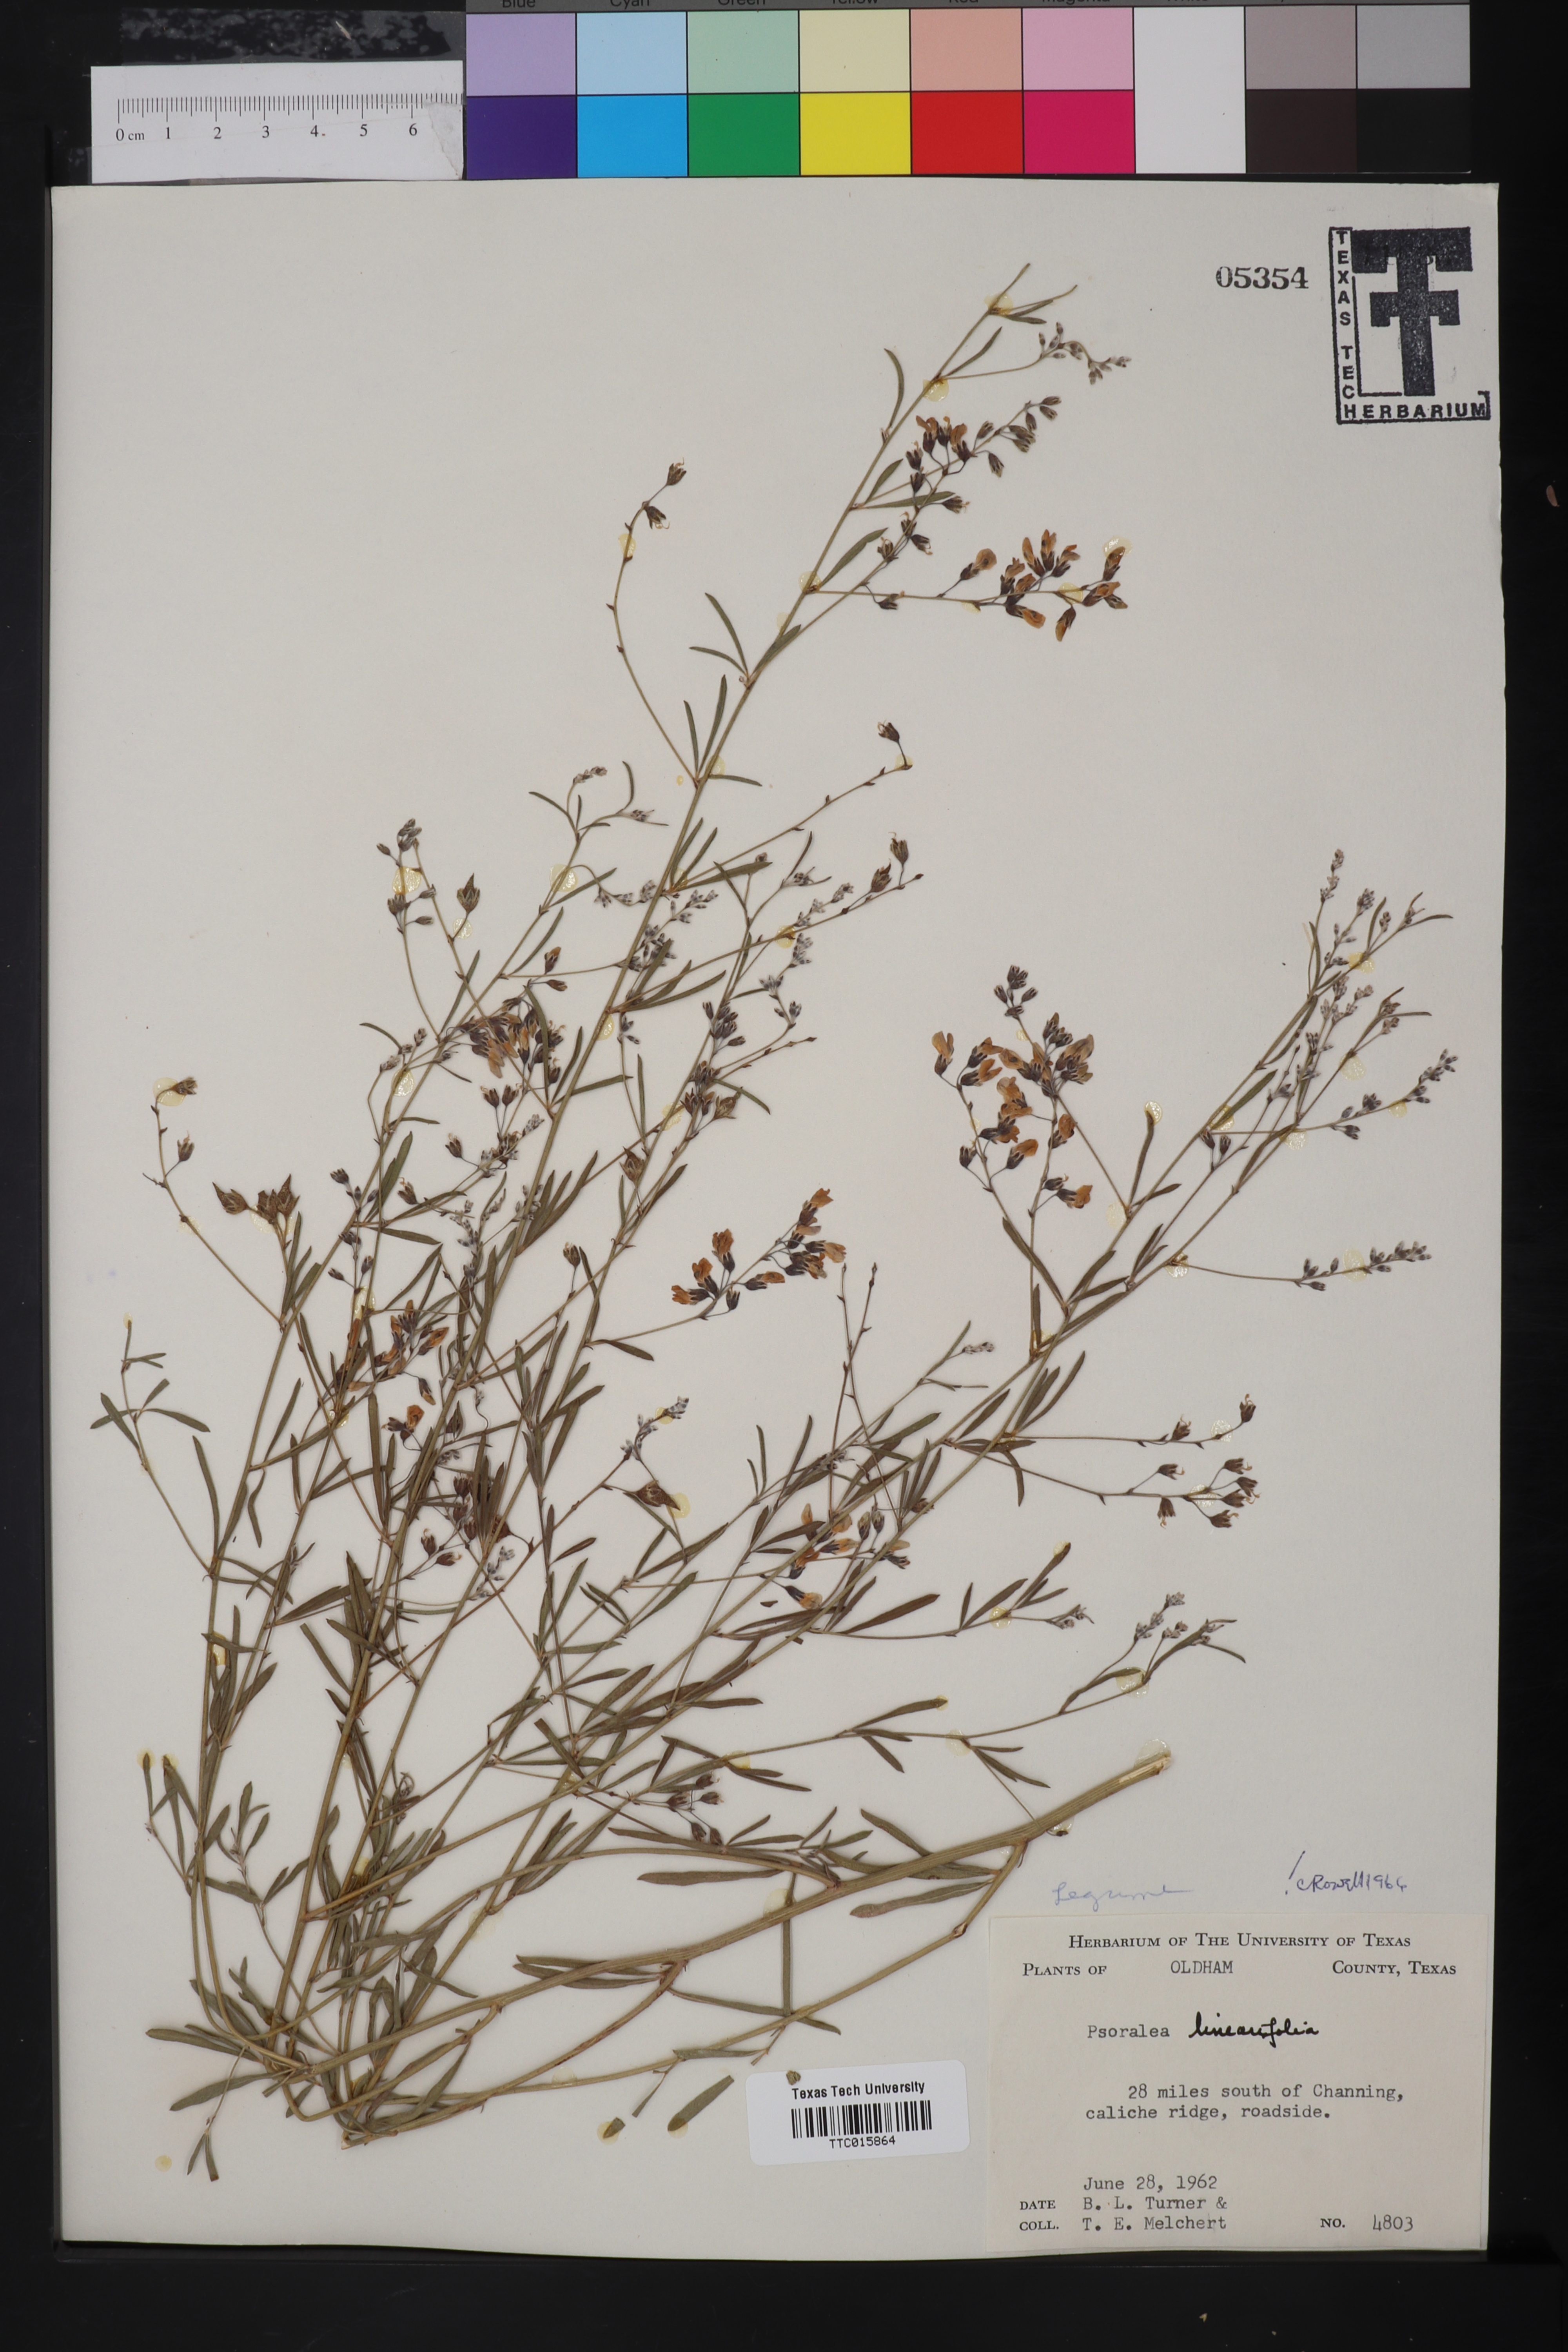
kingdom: Plantae
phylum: Tracheophyta
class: Magnoliopsida
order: Fabales
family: Fabaceae
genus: Pediomelum
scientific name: Pediomelum linearifolium
